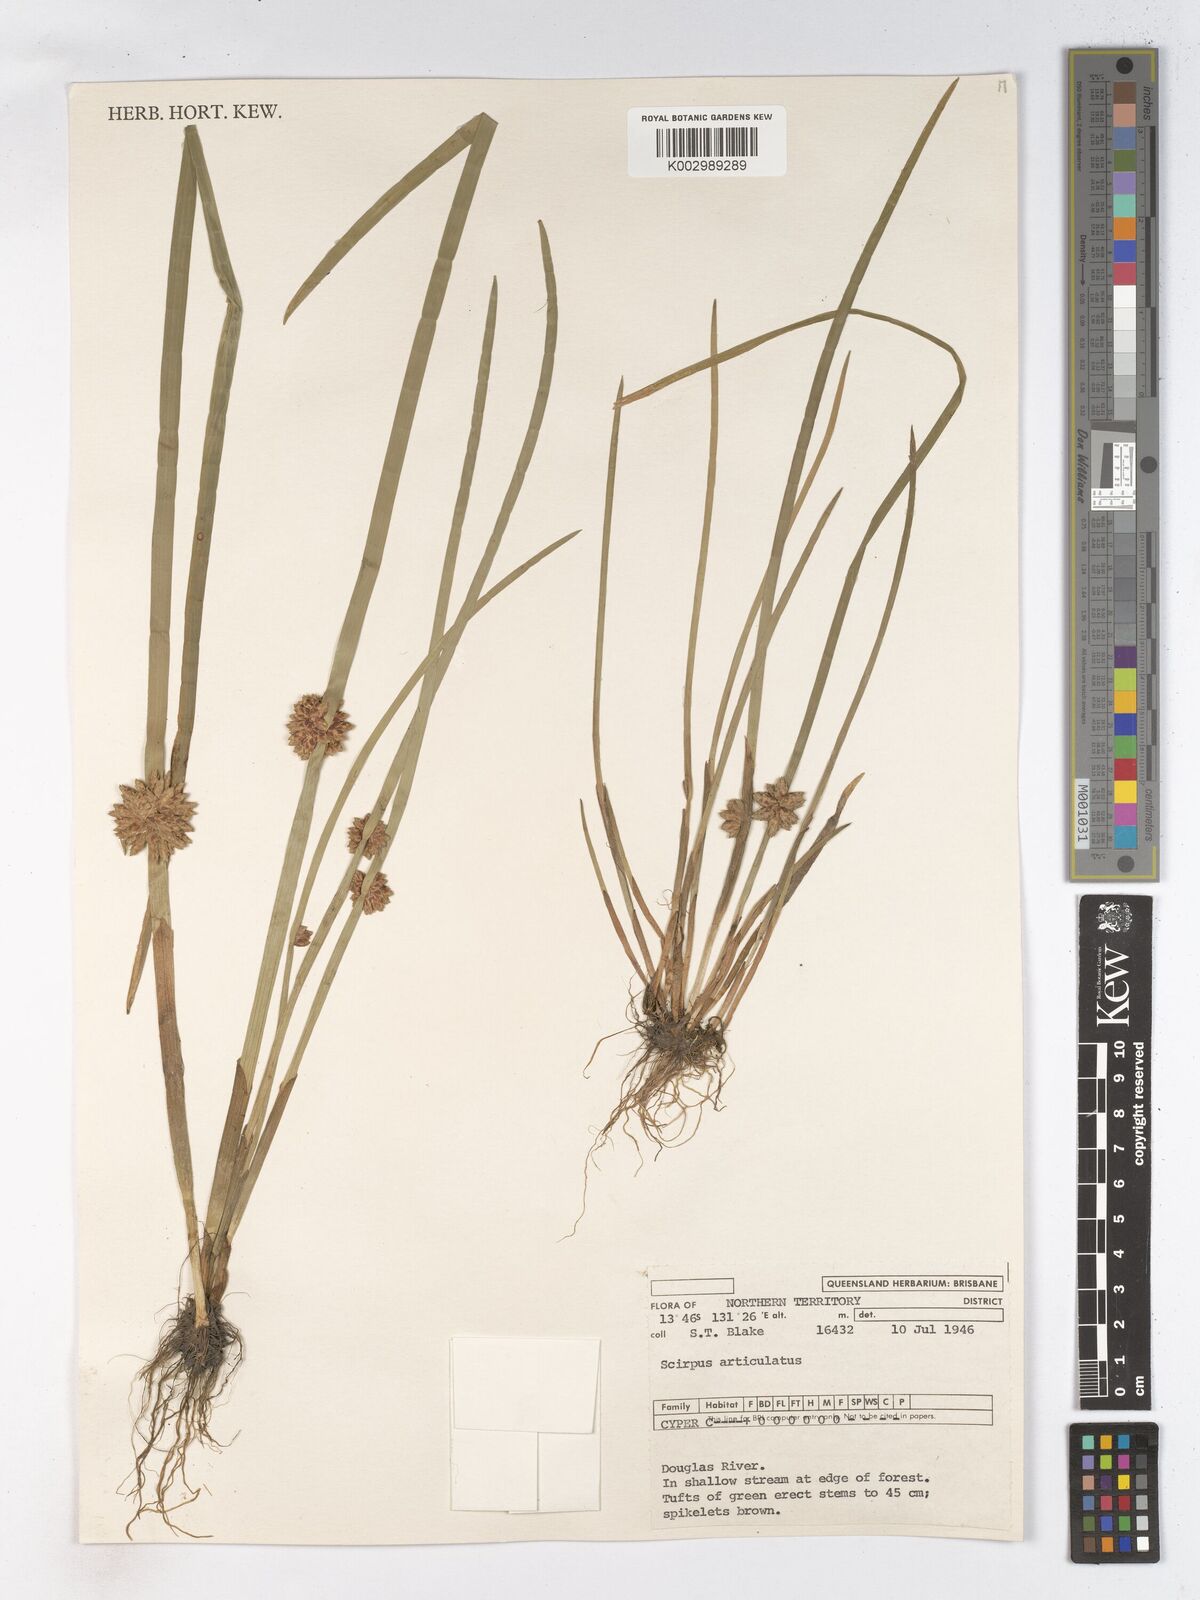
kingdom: Plantae
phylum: Tracheophyta
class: Liliopsida
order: Poales
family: Cyperaceae
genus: Schoenoplectiella
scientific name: Schoenoplectiella articulata
